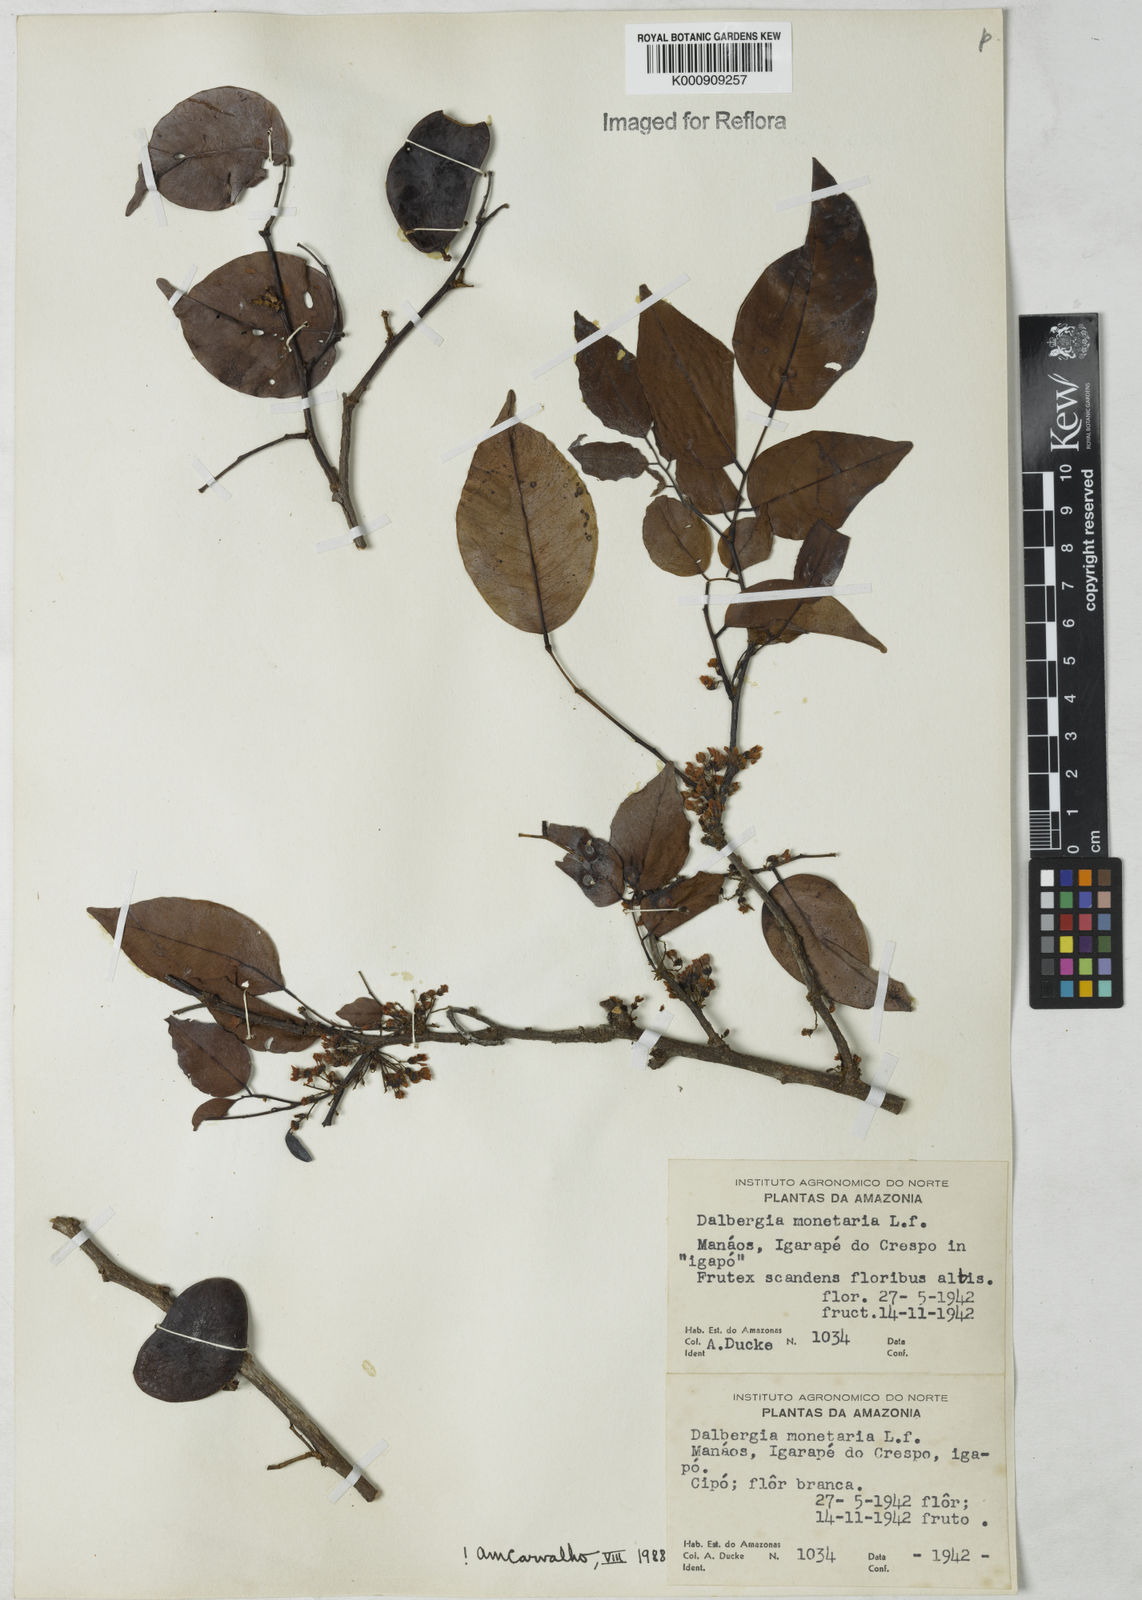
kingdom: Plantae
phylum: Tracheophyta
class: Magnoliopsida
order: Fabales
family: Fabaceae
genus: Dalbergia
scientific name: Dalbergia ovalis
